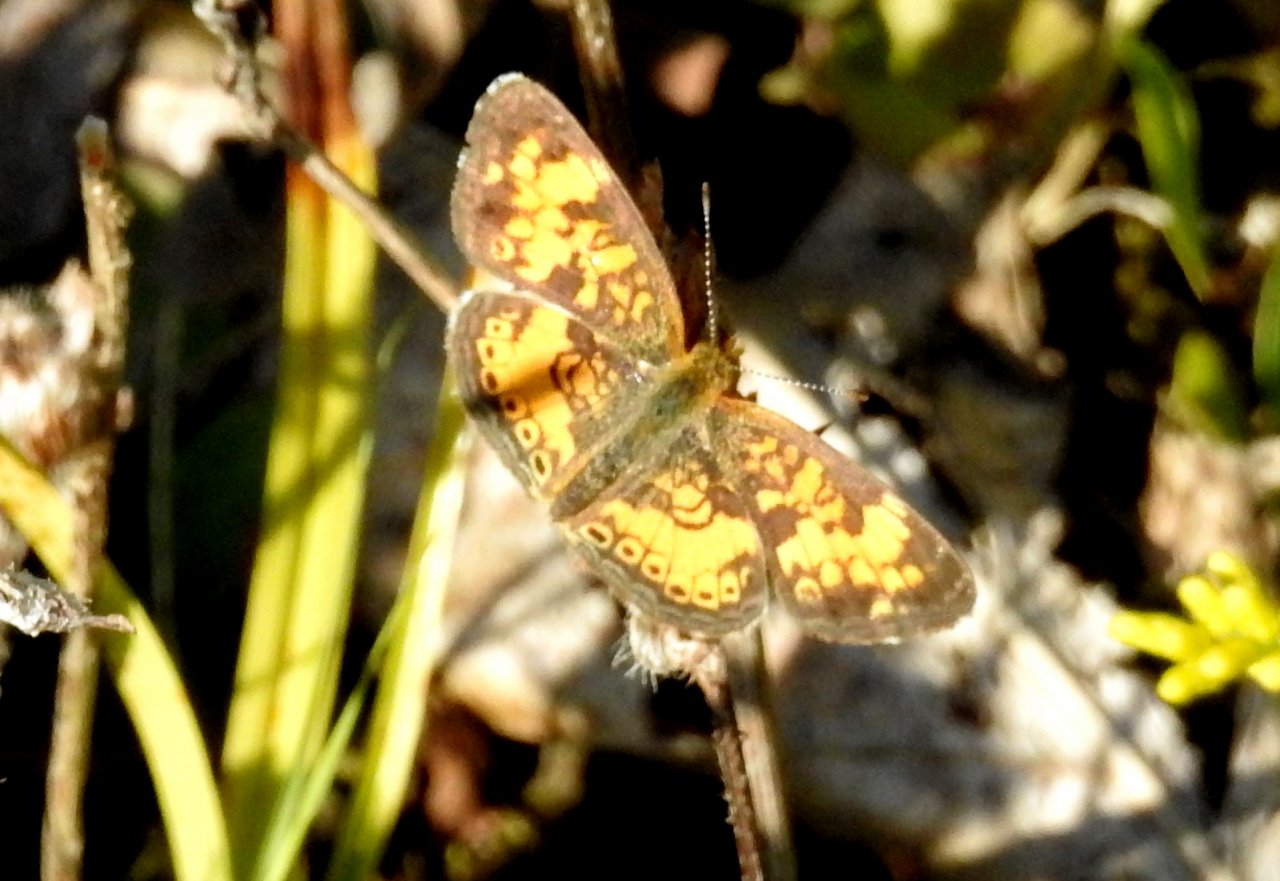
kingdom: Animalia
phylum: Arthropoda
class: Insecta
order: Lepidoptera
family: Nymphalidae
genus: Phyciodes
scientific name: Phyciodes
